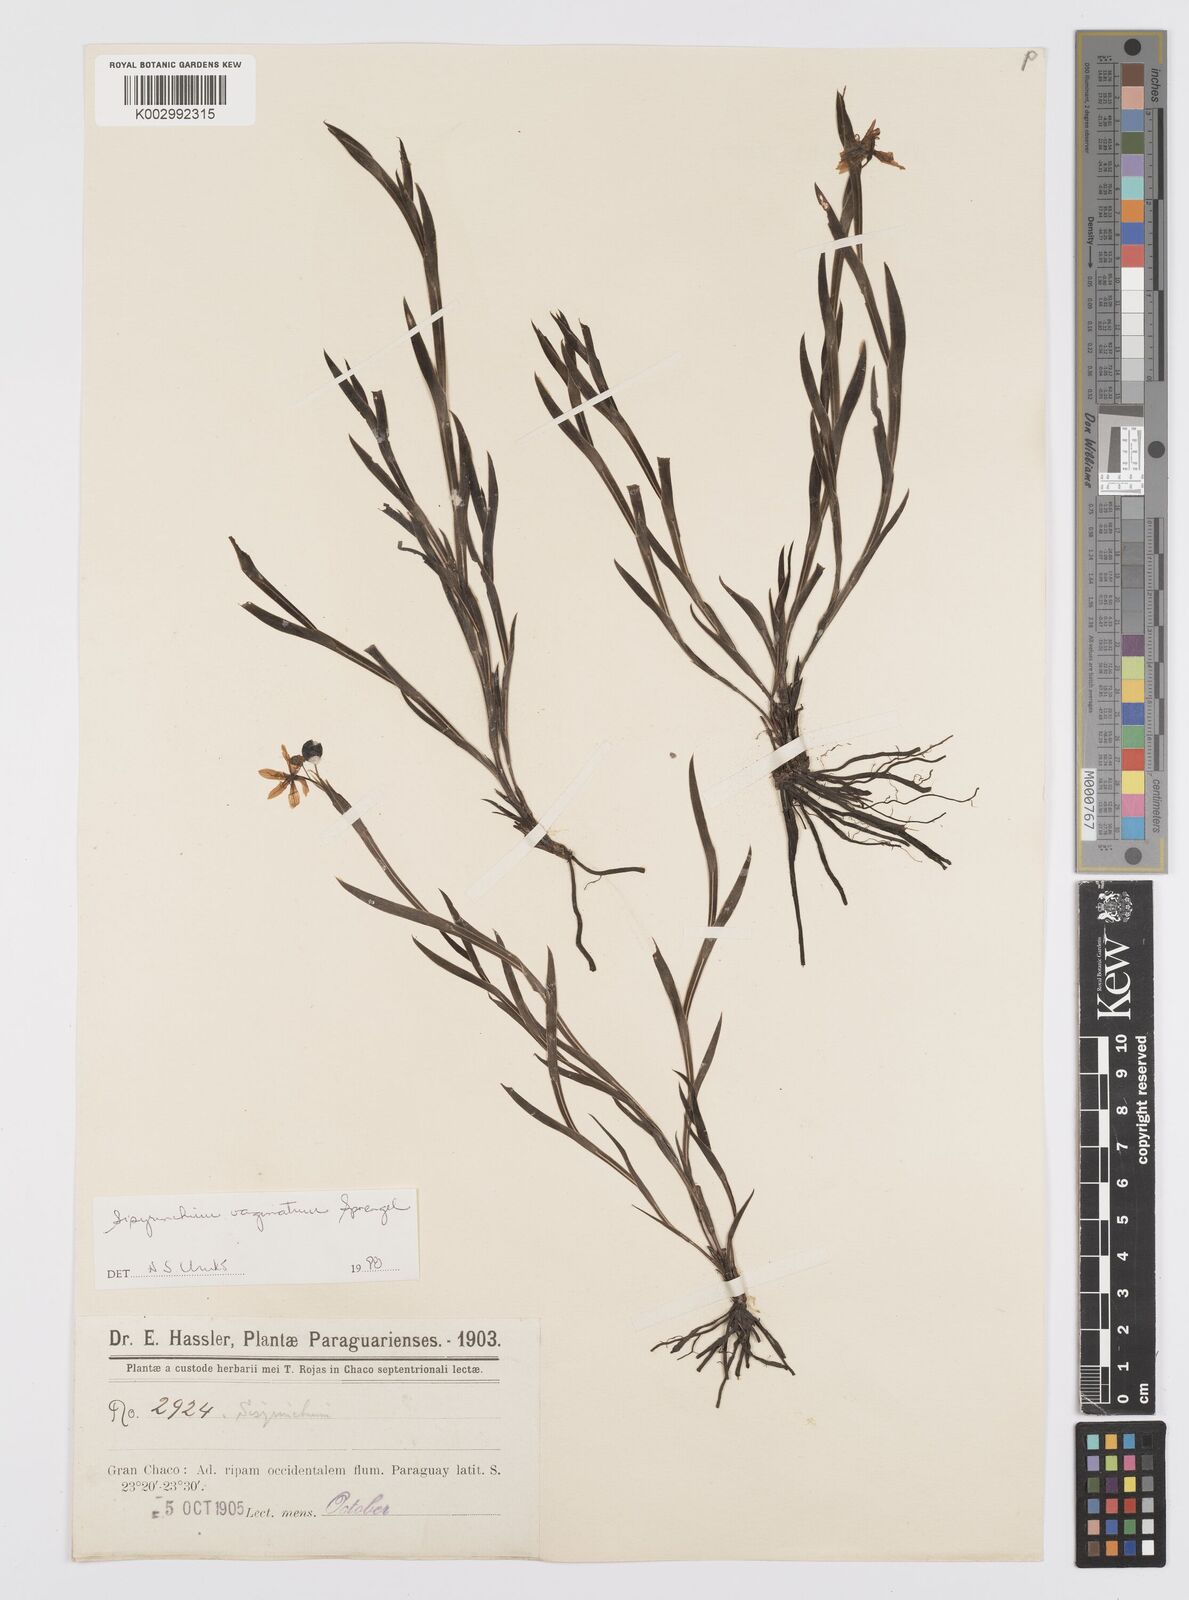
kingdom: Plantae
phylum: Tracheophyta
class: Liliopsida
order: Asparagales
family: Iridaceae
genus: Sisyrinchium
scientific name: Sisyrinchium vaginatum
